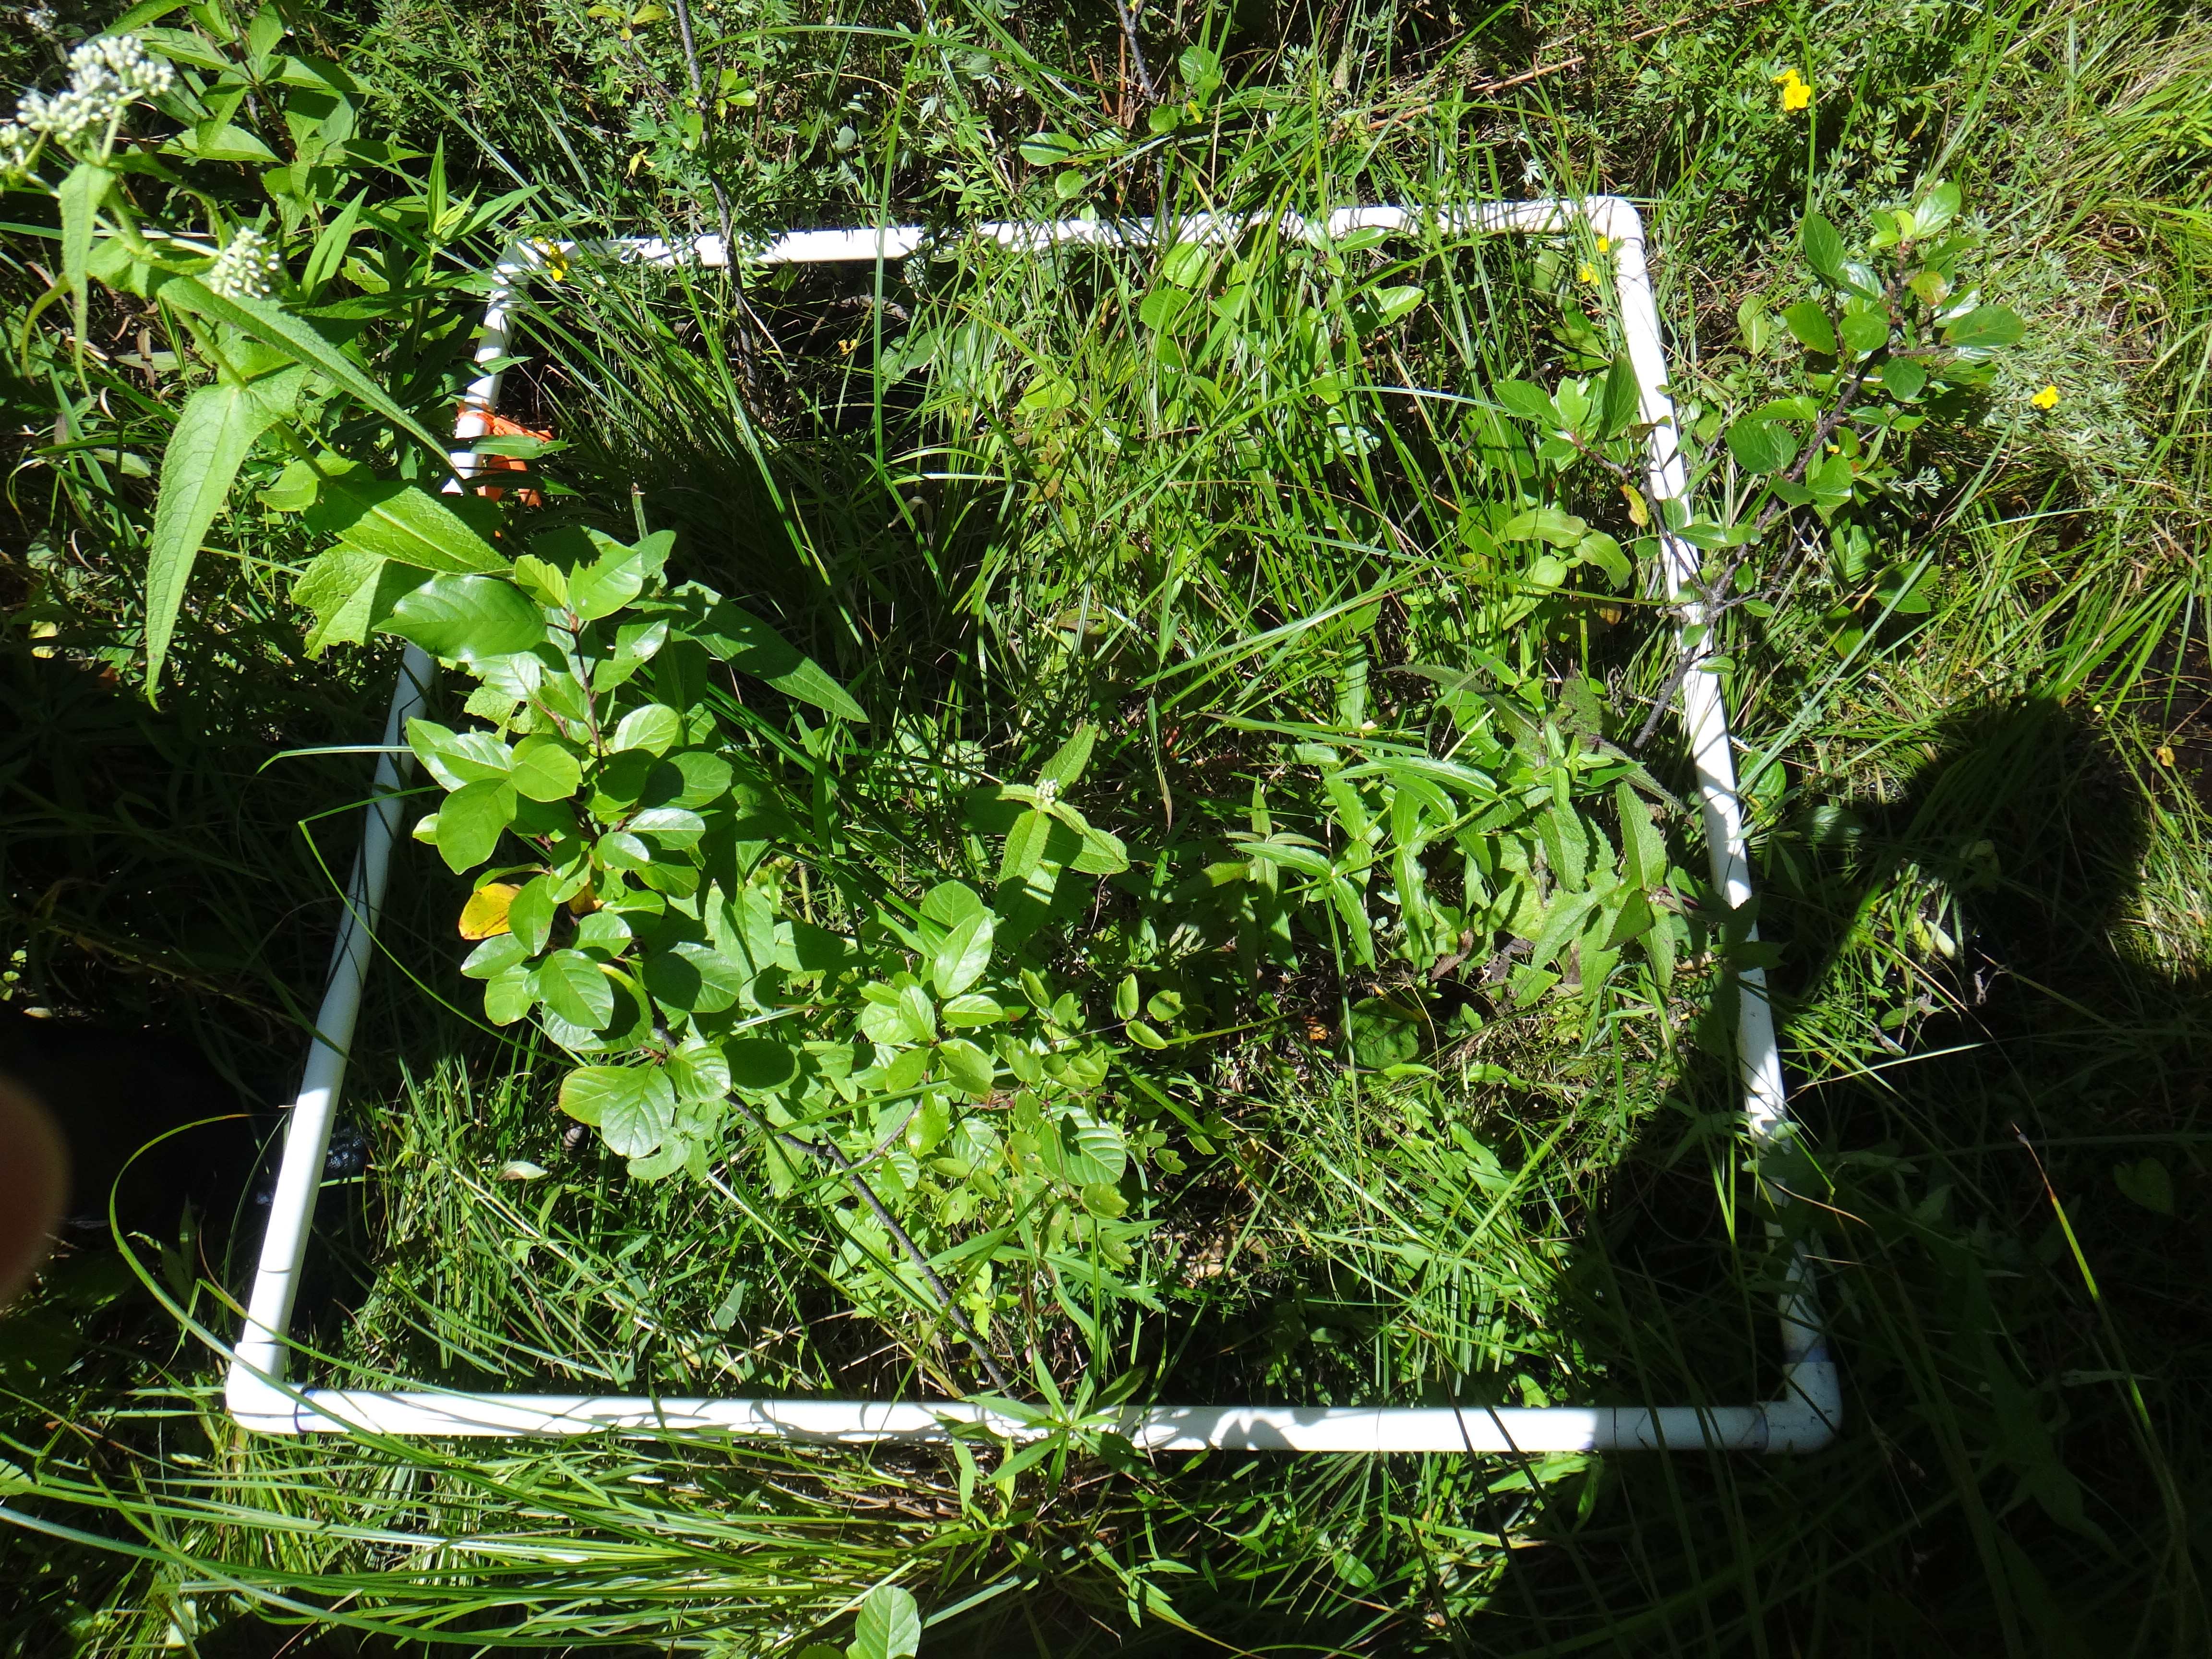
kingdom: Plantae
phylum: Tracheophyta
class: Liliopsida
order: Poales
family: Poaceae
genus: Leersia
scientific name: Leersia oryzoides
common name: Cut-grass
